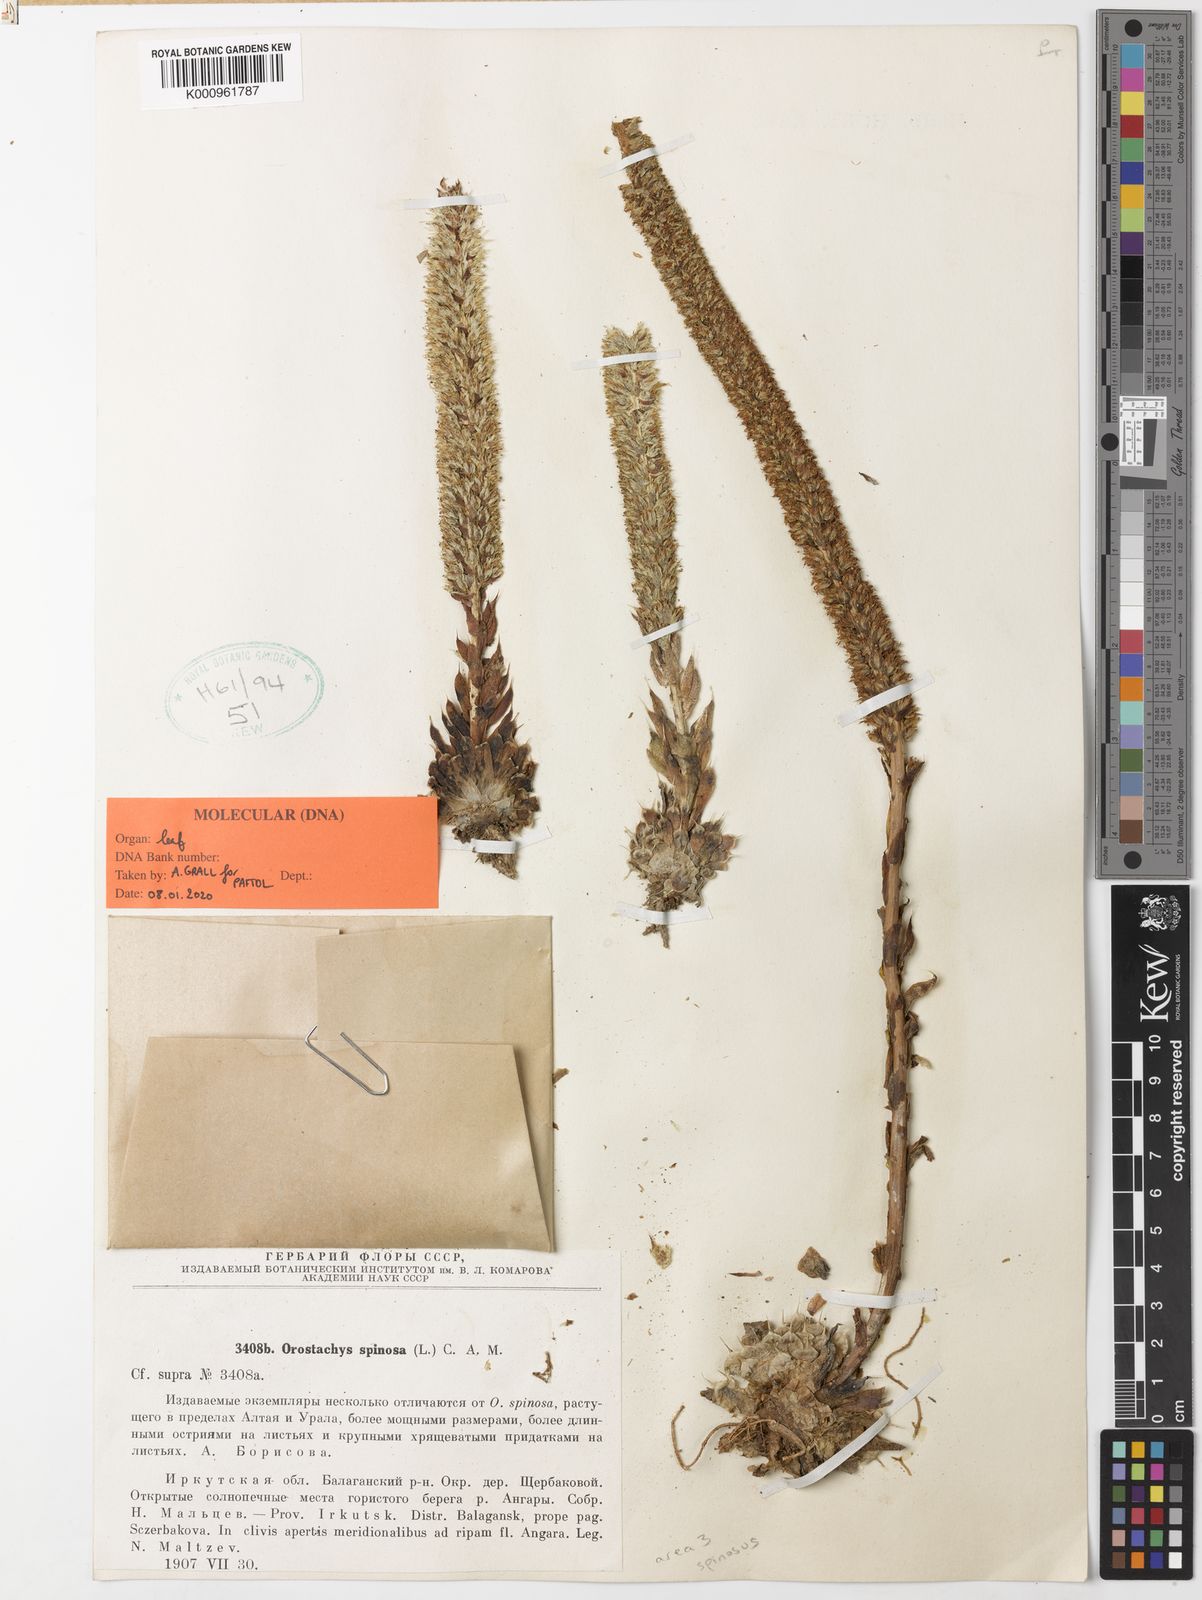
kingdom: Plantae
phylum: Tracheophyta
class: Magnoliopsida
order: Saxifragales
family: Crassulaceae
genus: Orostachys
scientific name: Orostachys spinosa
